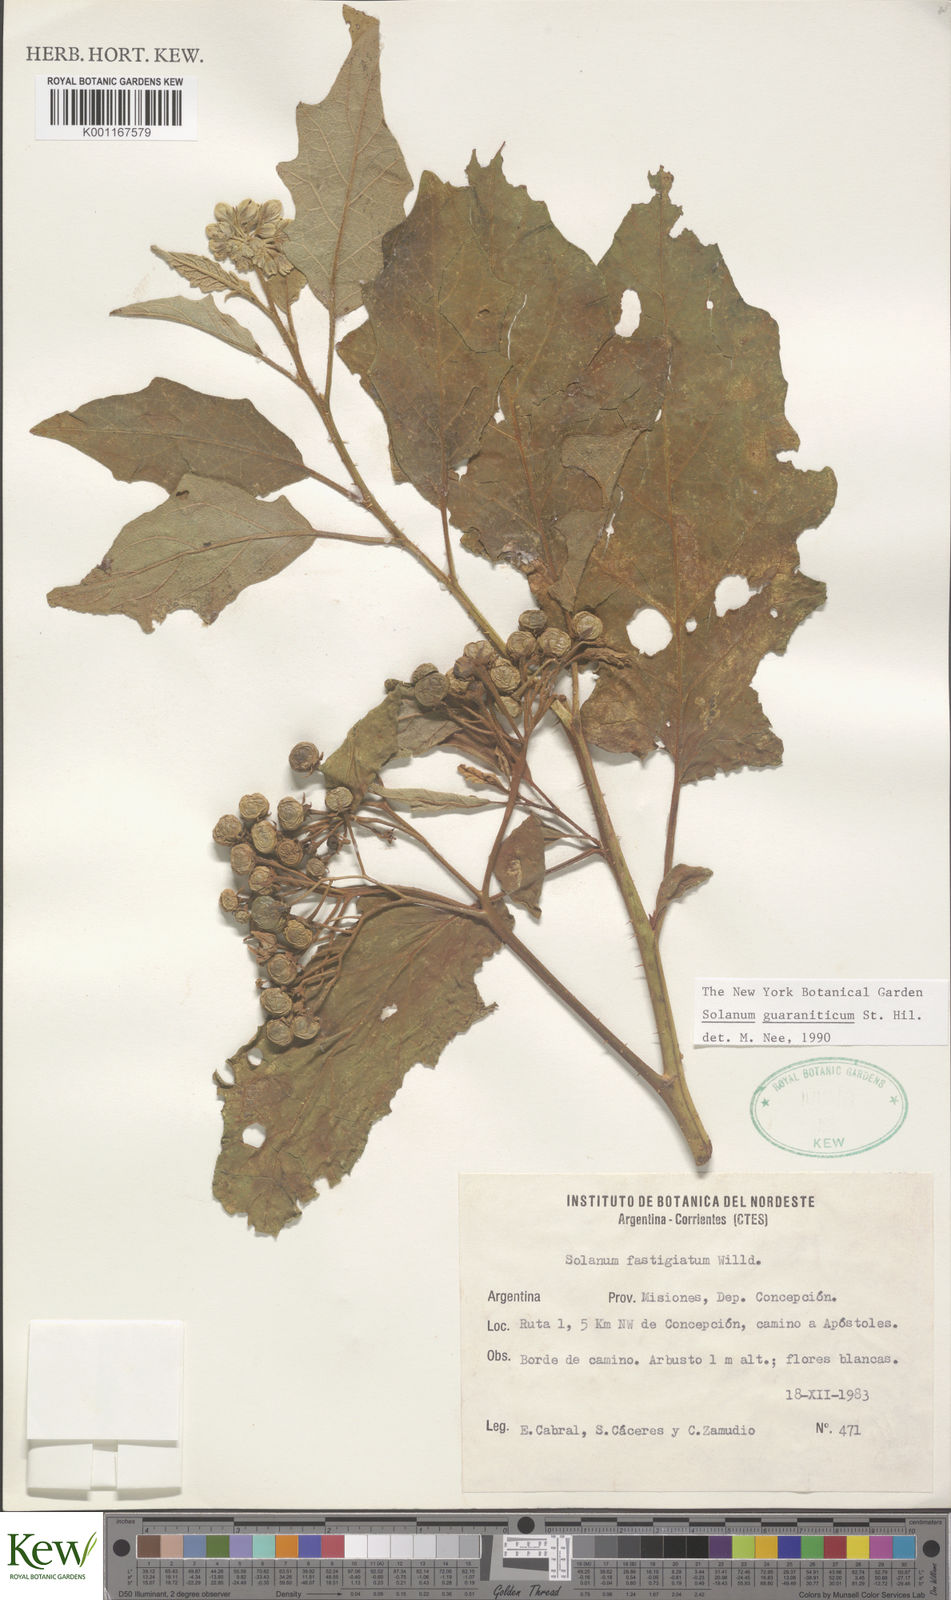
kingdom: Plantae
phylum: Tracheophyta
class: Magnoliopsida
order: Solanales
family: Solanaceae
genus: Solanum
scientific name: Solanum guaraniticum
